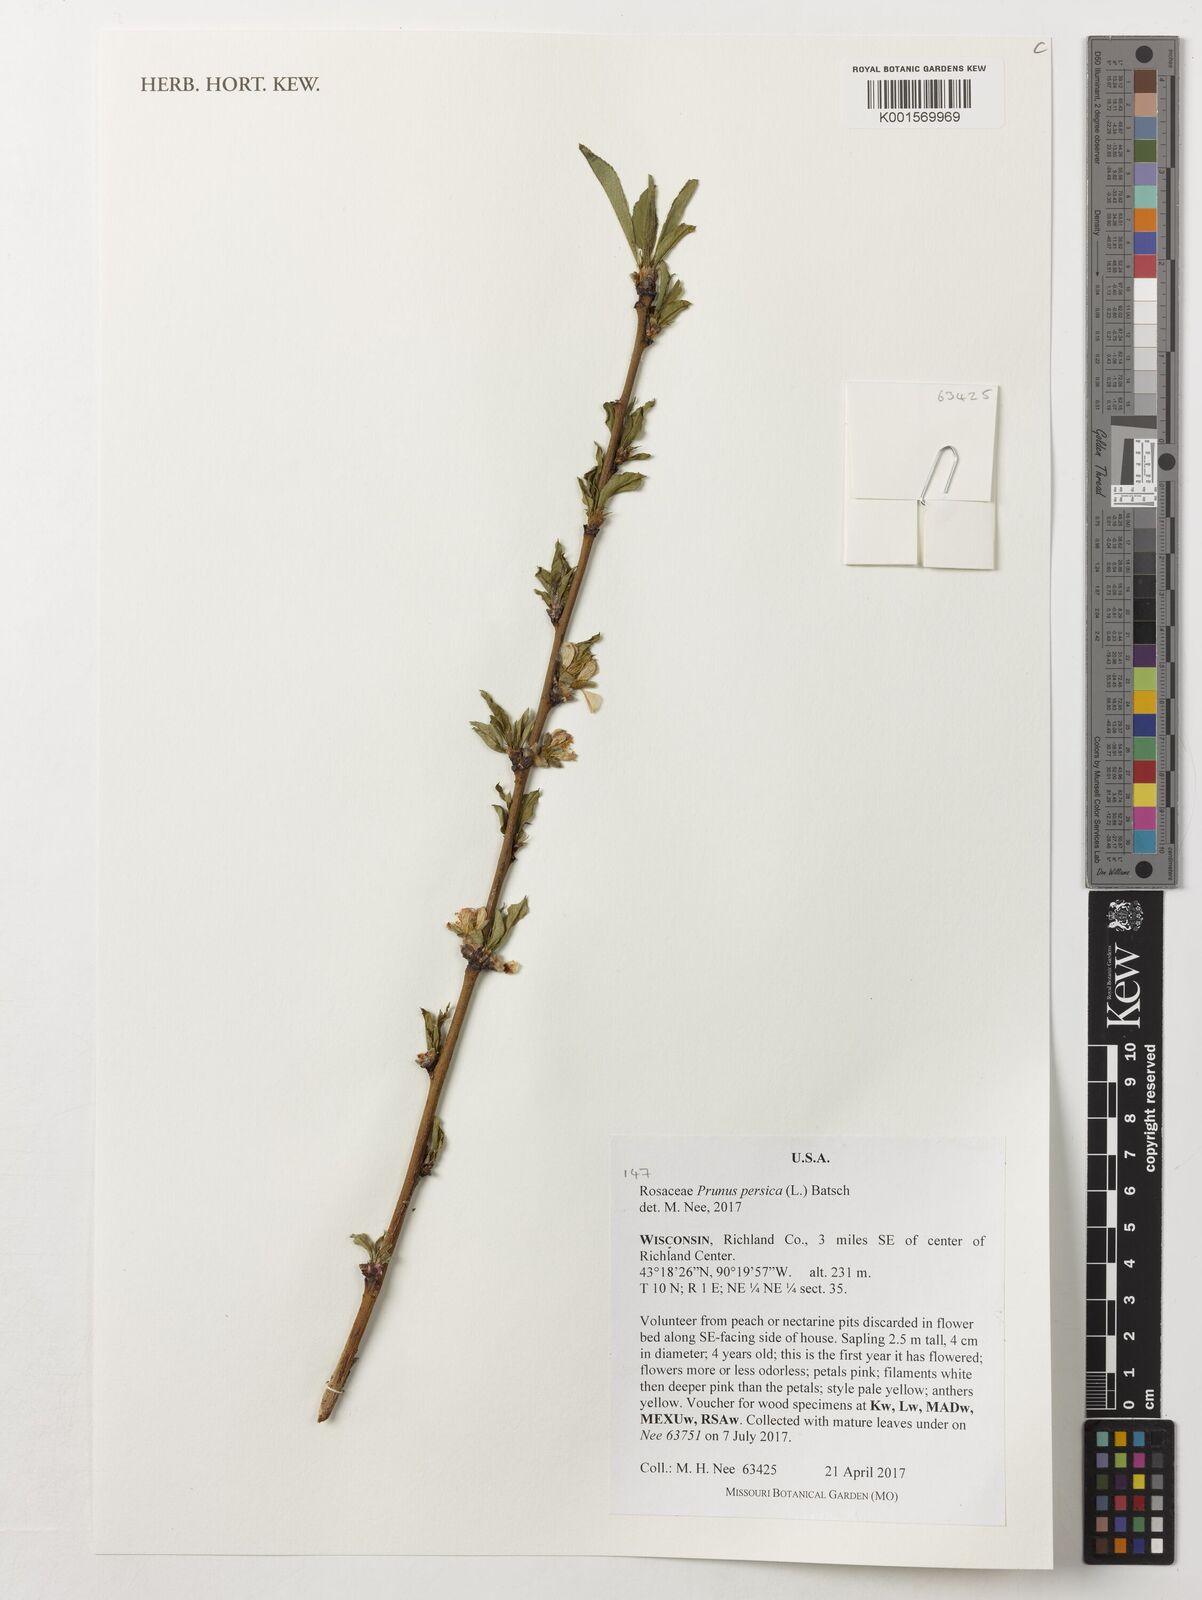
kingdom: Plantae
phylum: Tracheophyta
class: Magnoliopsida
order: Rosales
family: Rosaceae
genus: Prunus
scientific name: Prunus persica
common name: Peach
